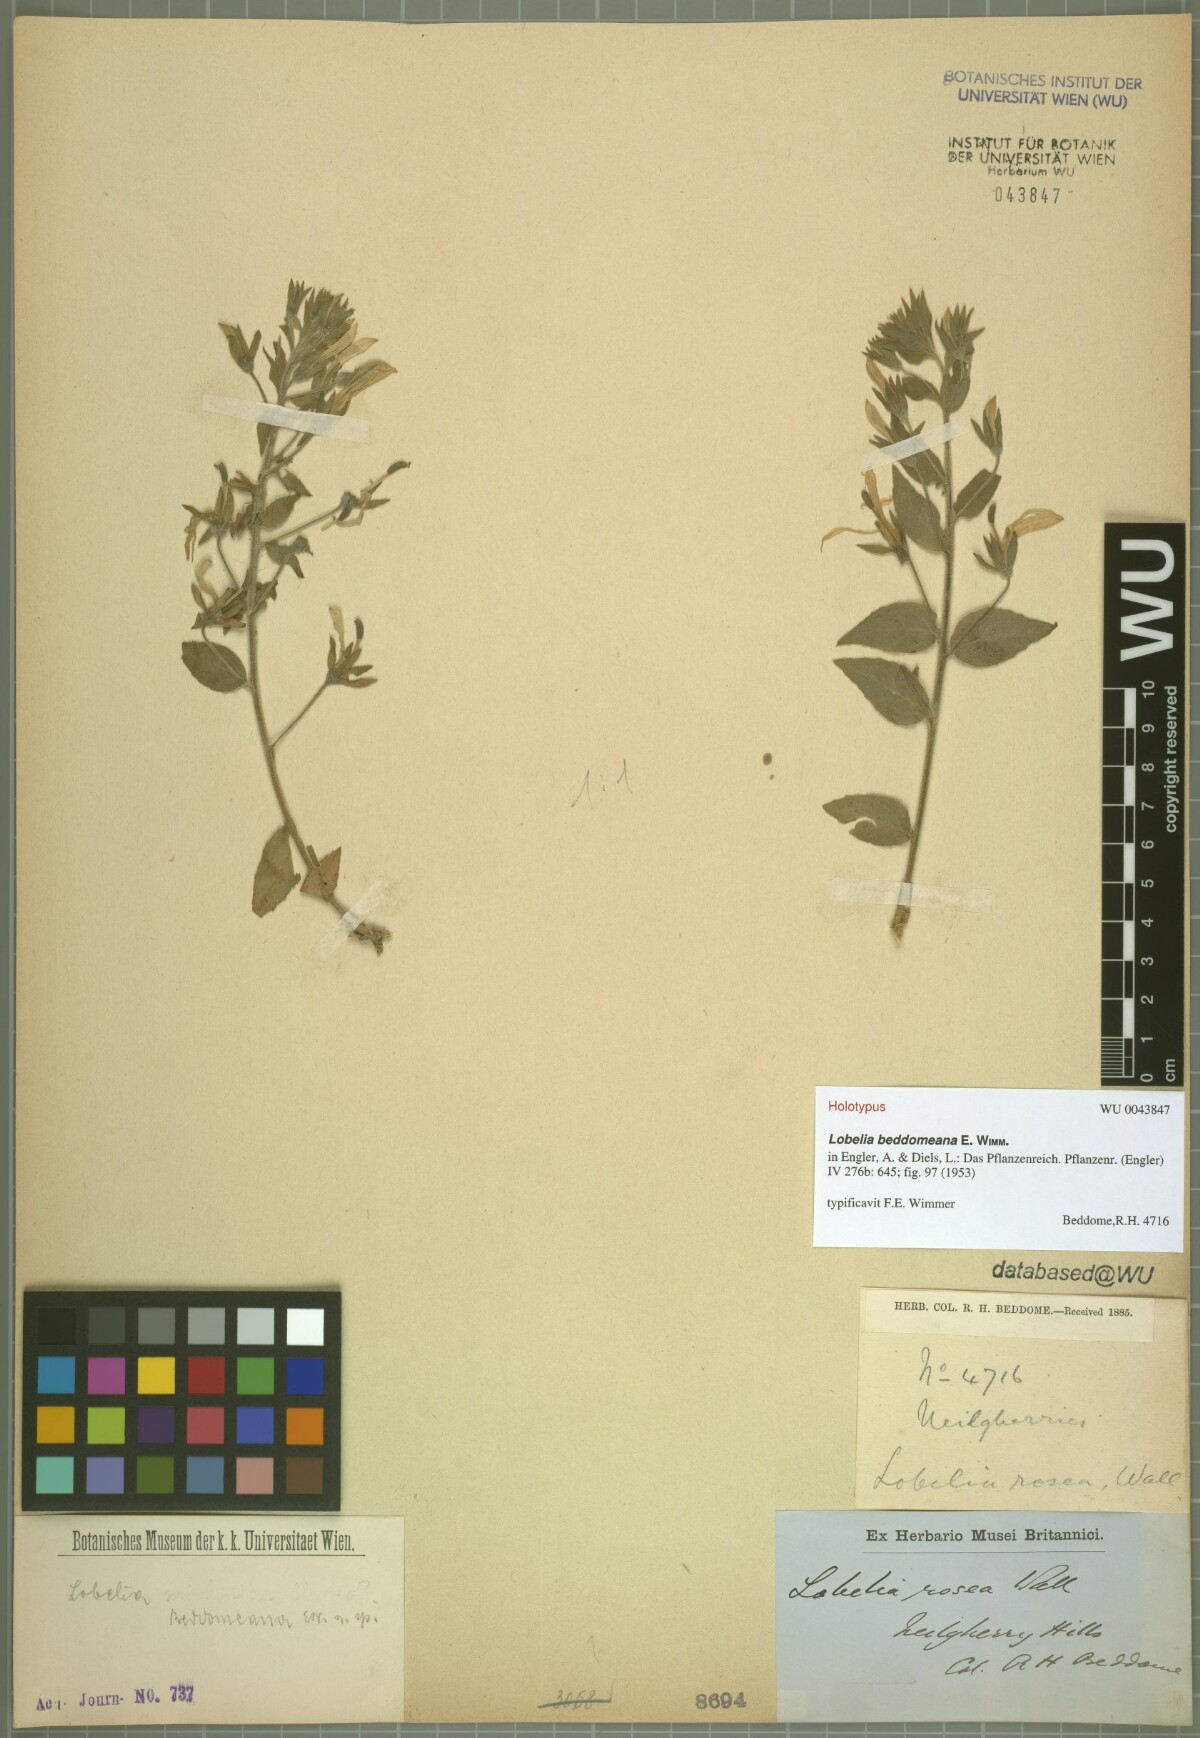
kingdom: Plantae
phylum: Tracheophyta
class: Magnoliopsida
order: Asterales
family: Campanulaceae
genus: Lobelia
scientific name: Lobelia nicotianifolia
